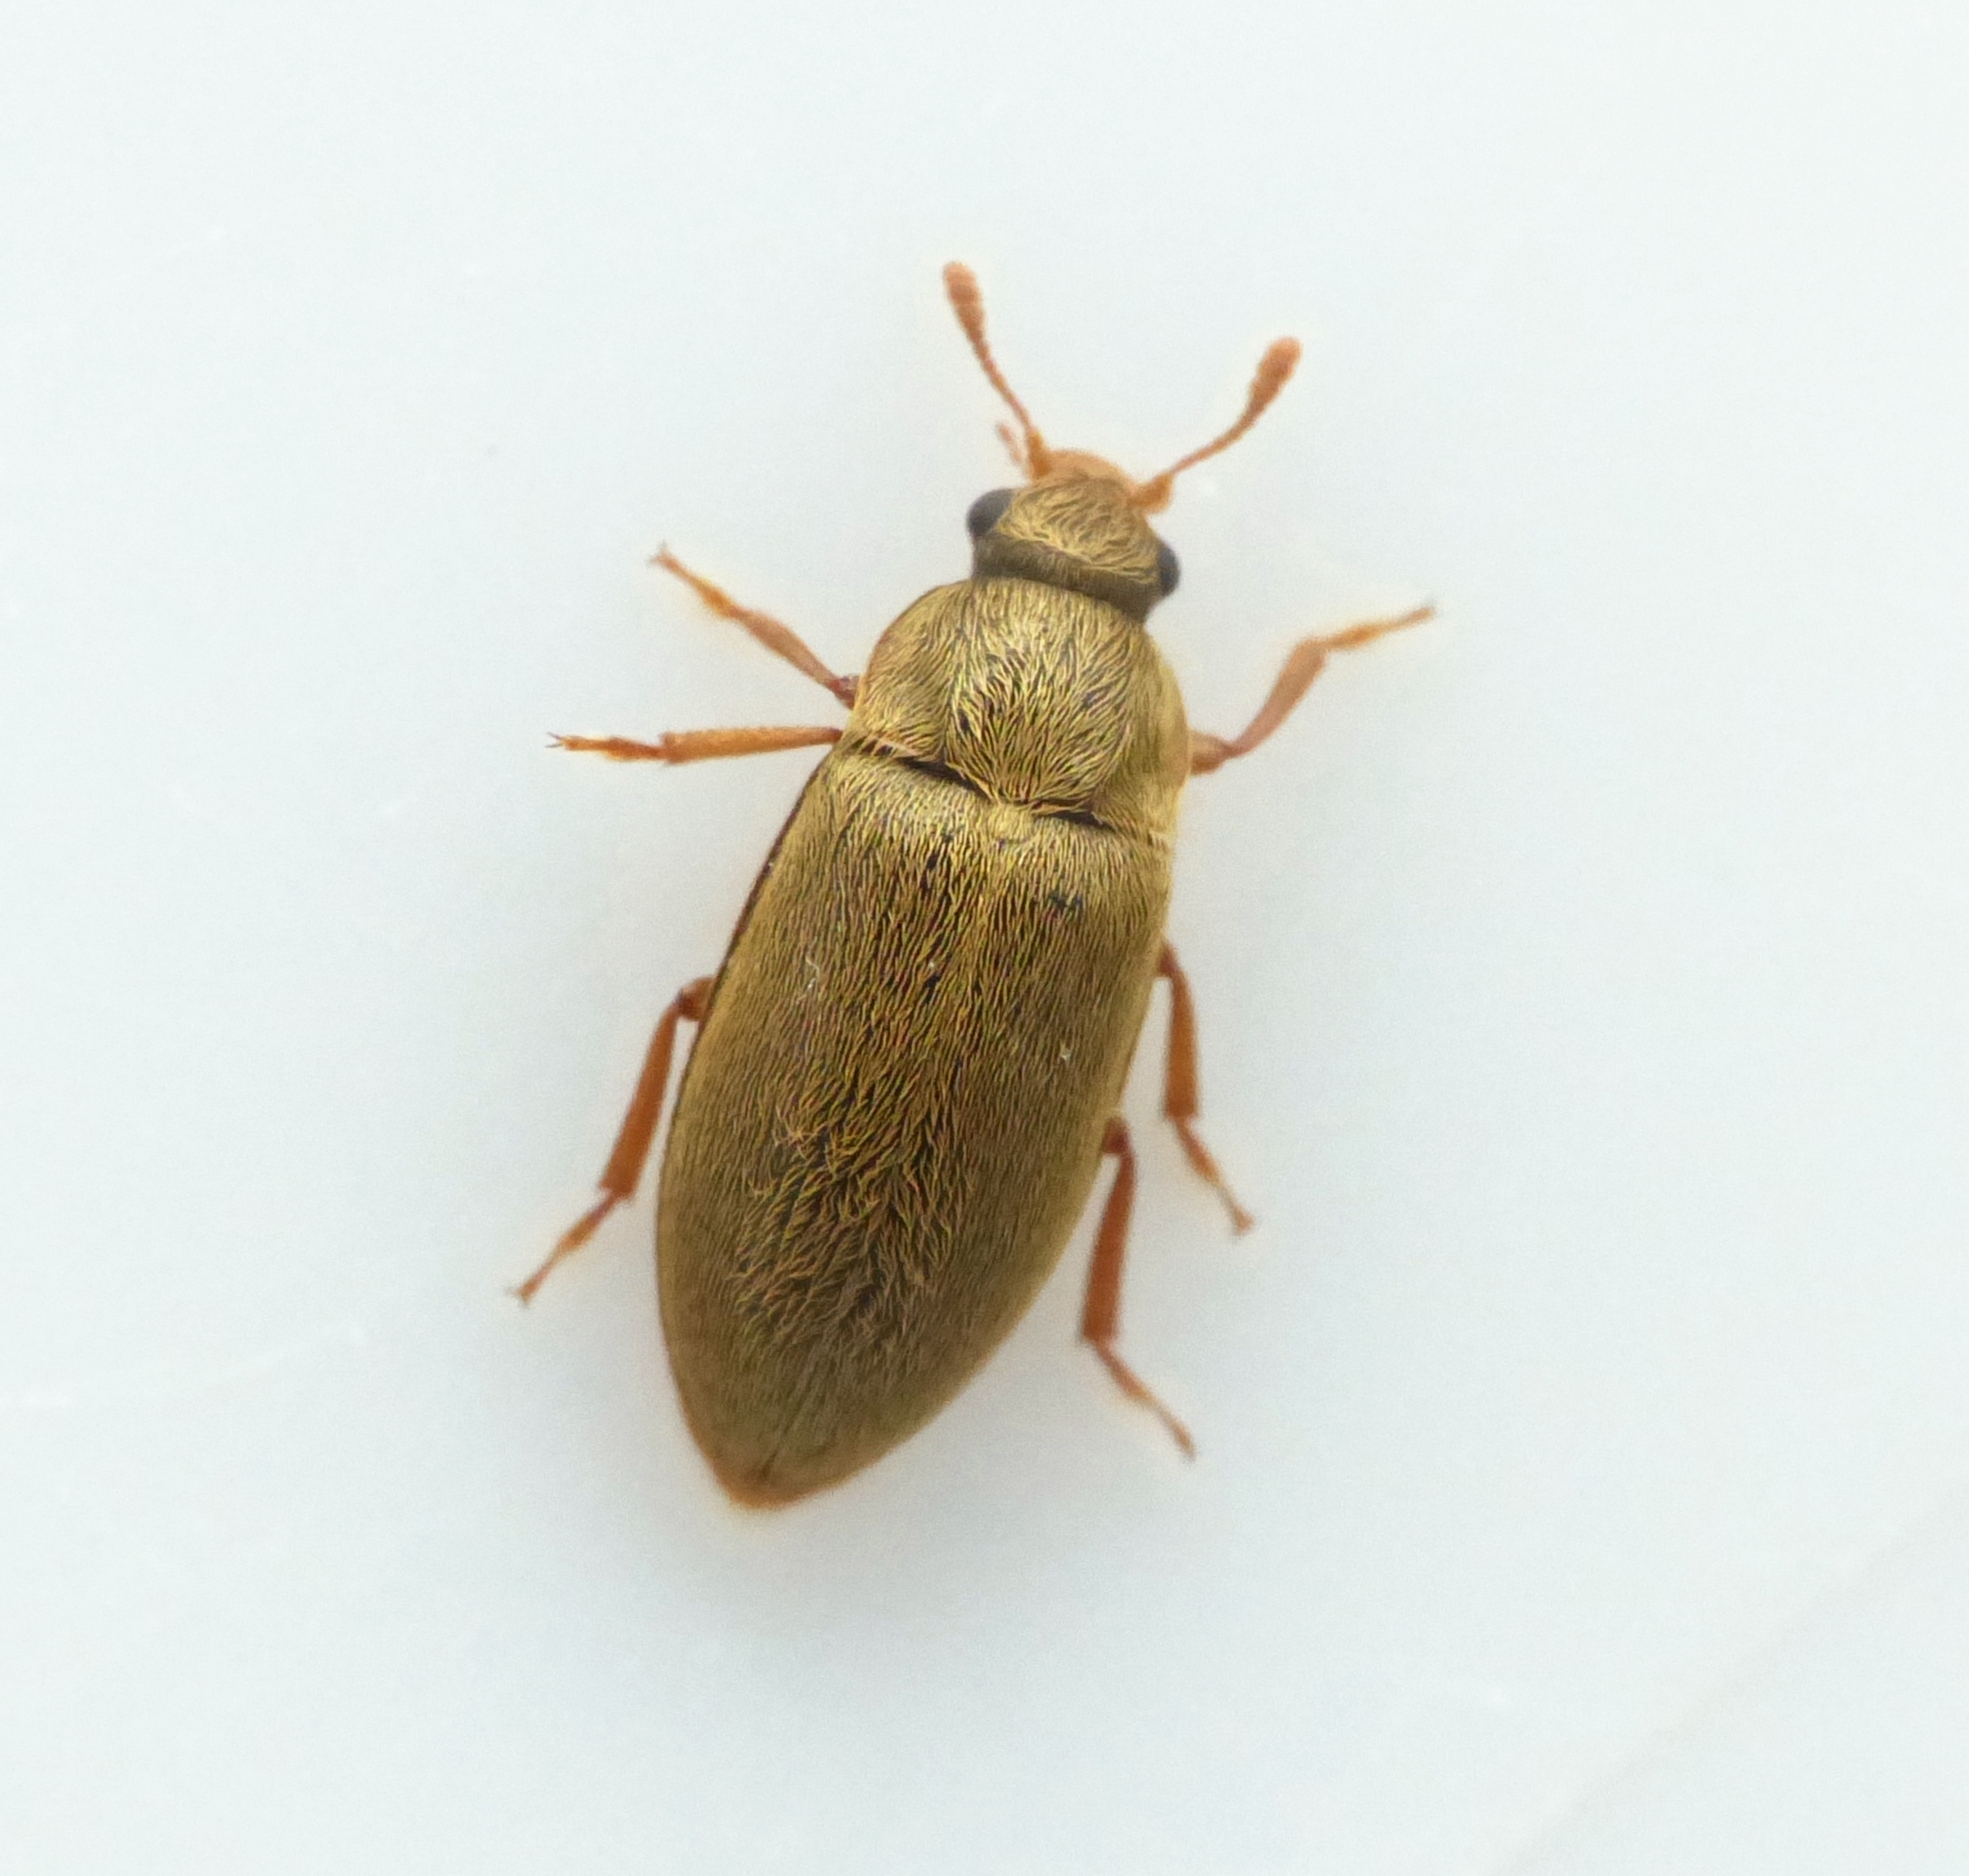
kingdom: Animalia
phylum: Arthropoda
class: Insecta
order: Coleoptera
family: Byturidae
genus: Byturus
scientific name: Byturus tomentosus
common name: Hindbærbille
